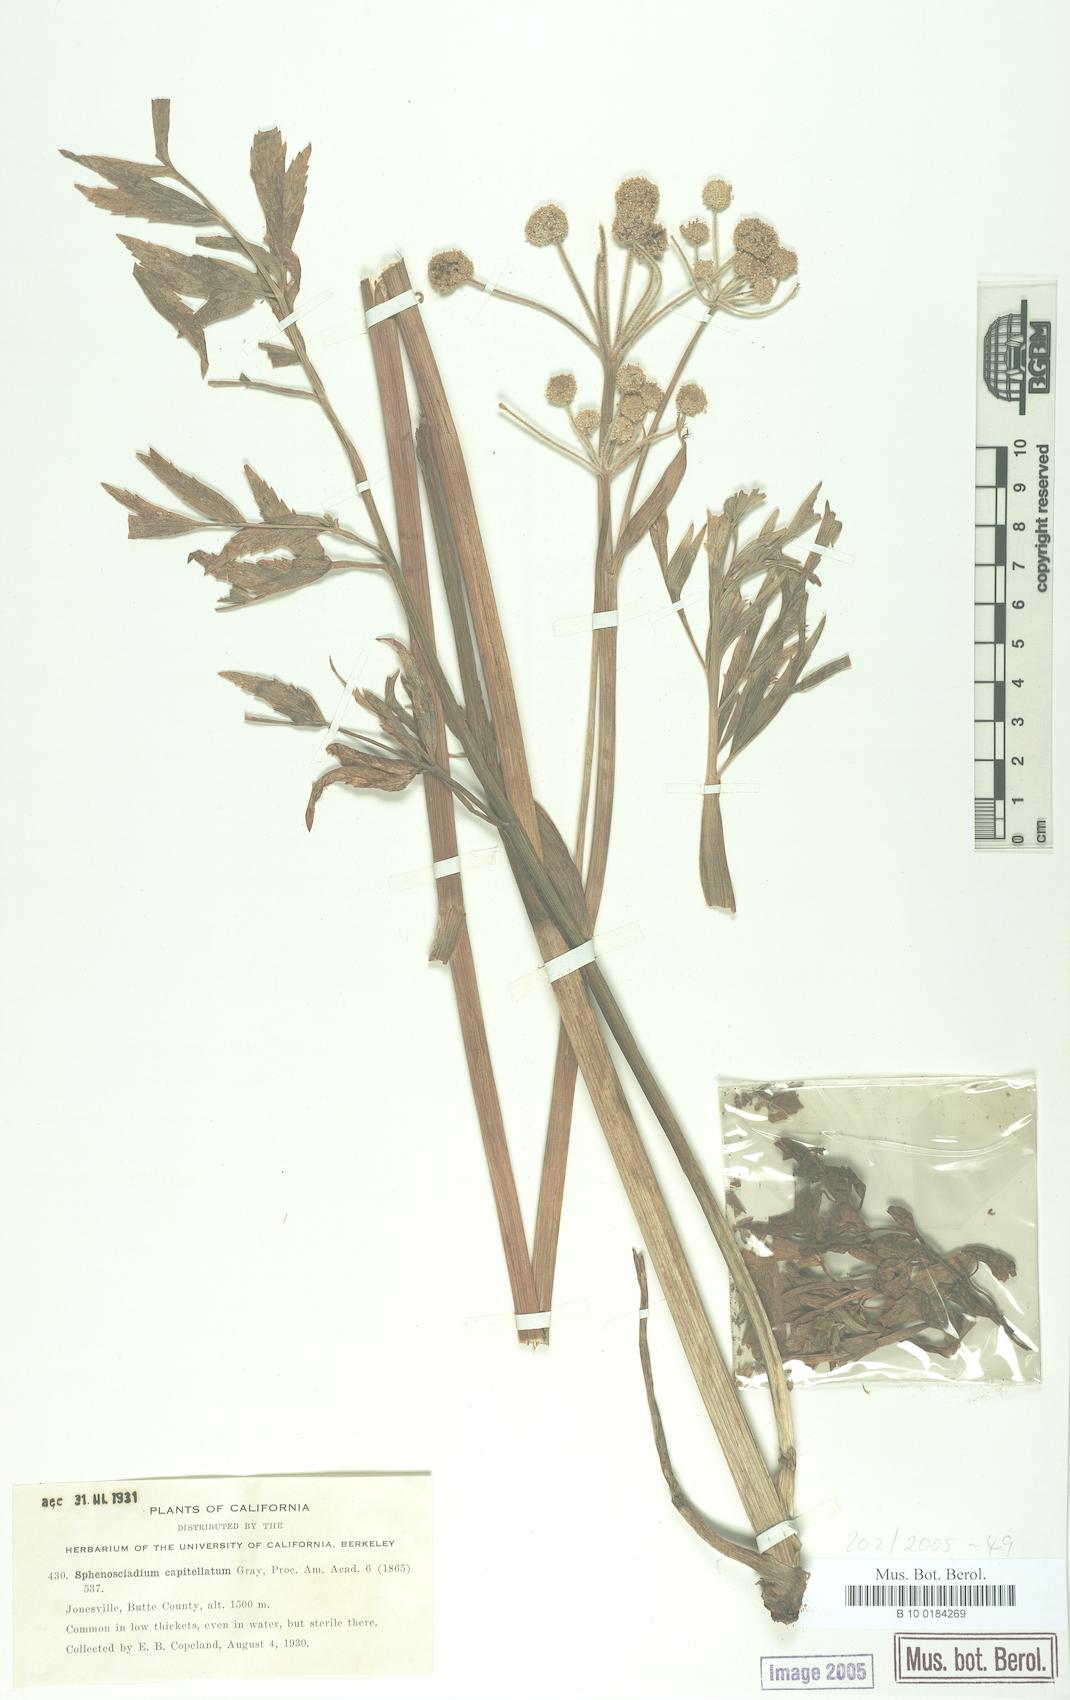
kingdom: Plantae
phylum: Tracheophyta
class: Magnoliopsida
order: Apiales
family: Apiaceae
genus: Angelica
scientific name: Angelica capitellata
